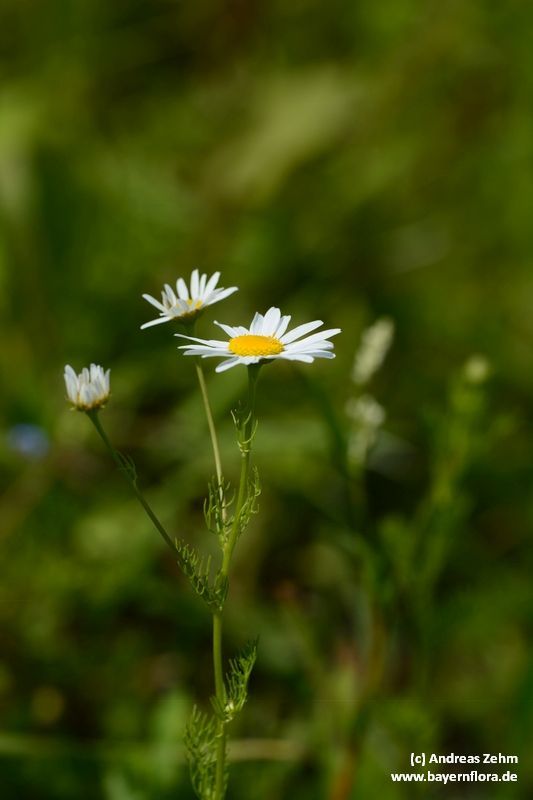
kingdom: Plantae
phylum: Tracheophyta
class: Magnoliopsida
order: Asterales
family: Asteraceae
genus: Tripleurospermum
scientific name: Tripleurospermum inodorum
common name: Scentless mayweed
